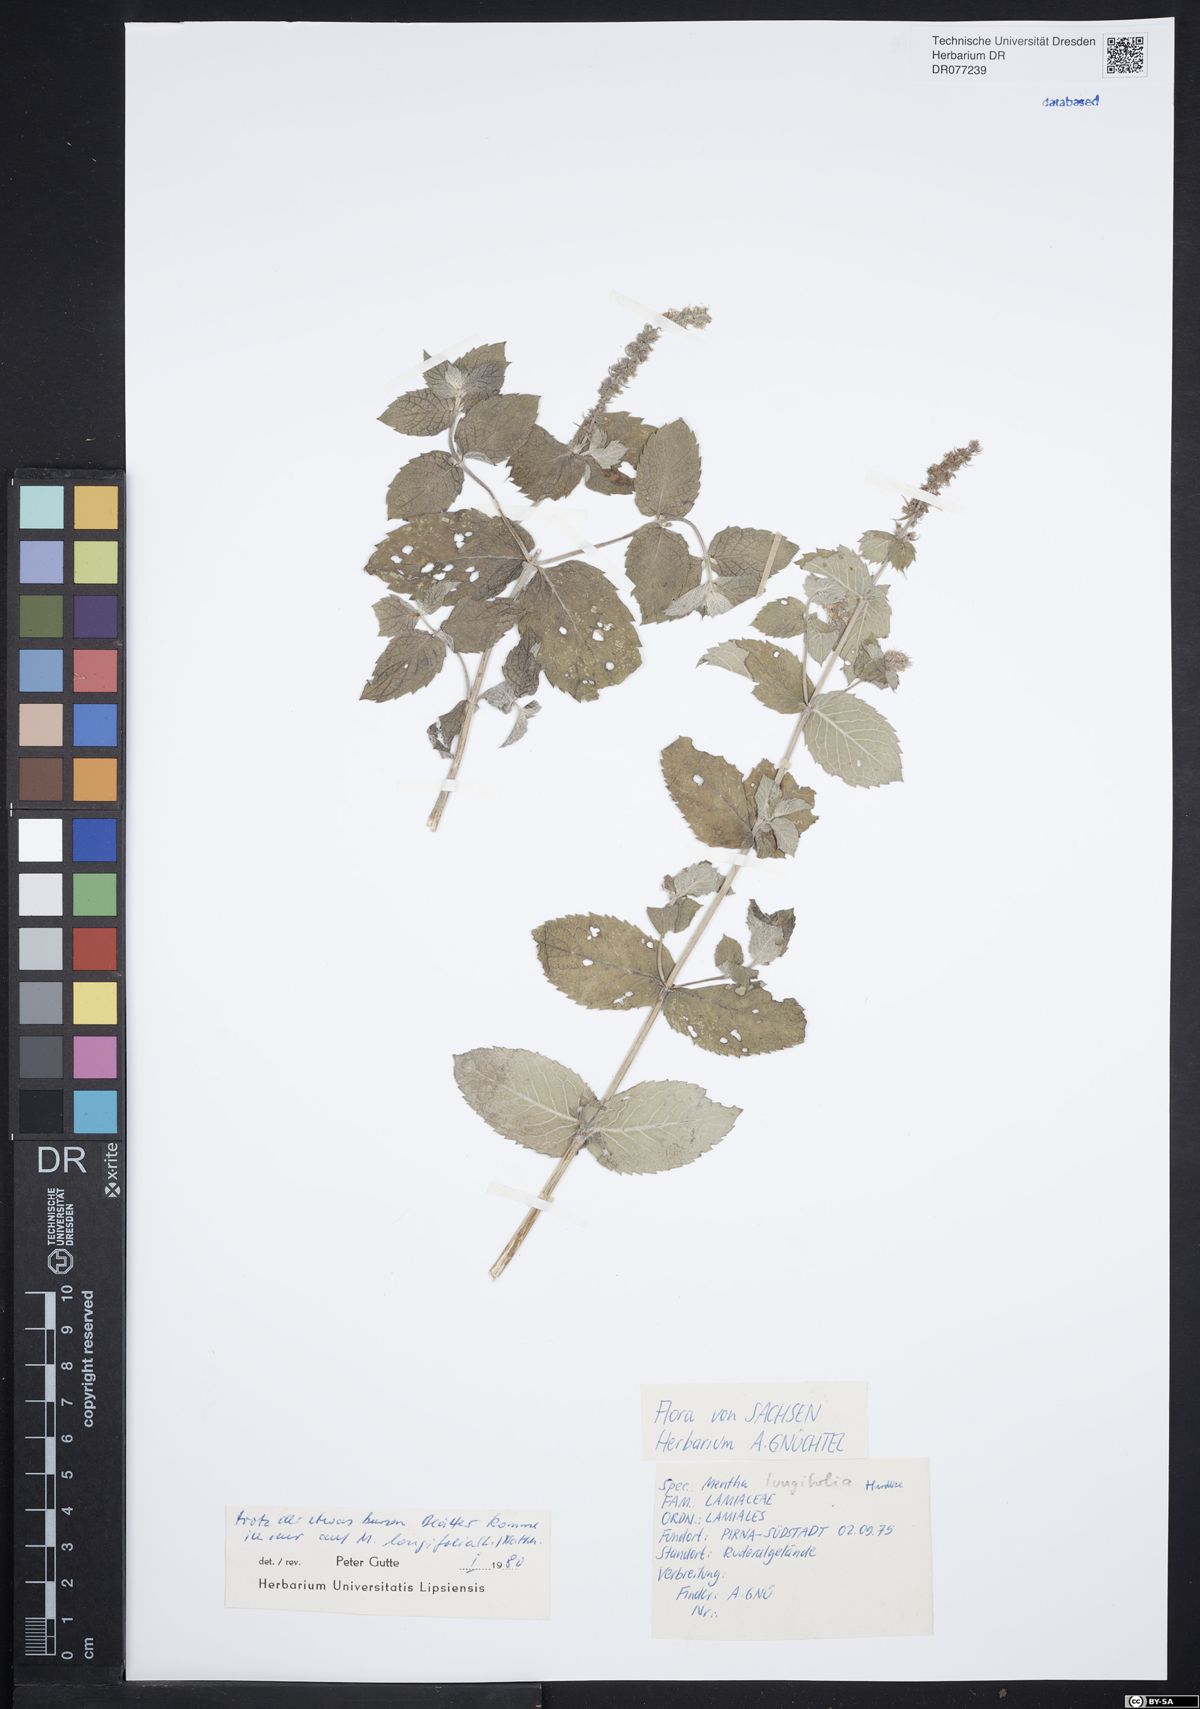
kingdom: Plantae
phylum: Tracheophyta
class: Magnoliopsida
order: Lamiales
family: Lamiaceae
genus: Mentha
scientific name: Mentha longifolia
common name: Horse mint
